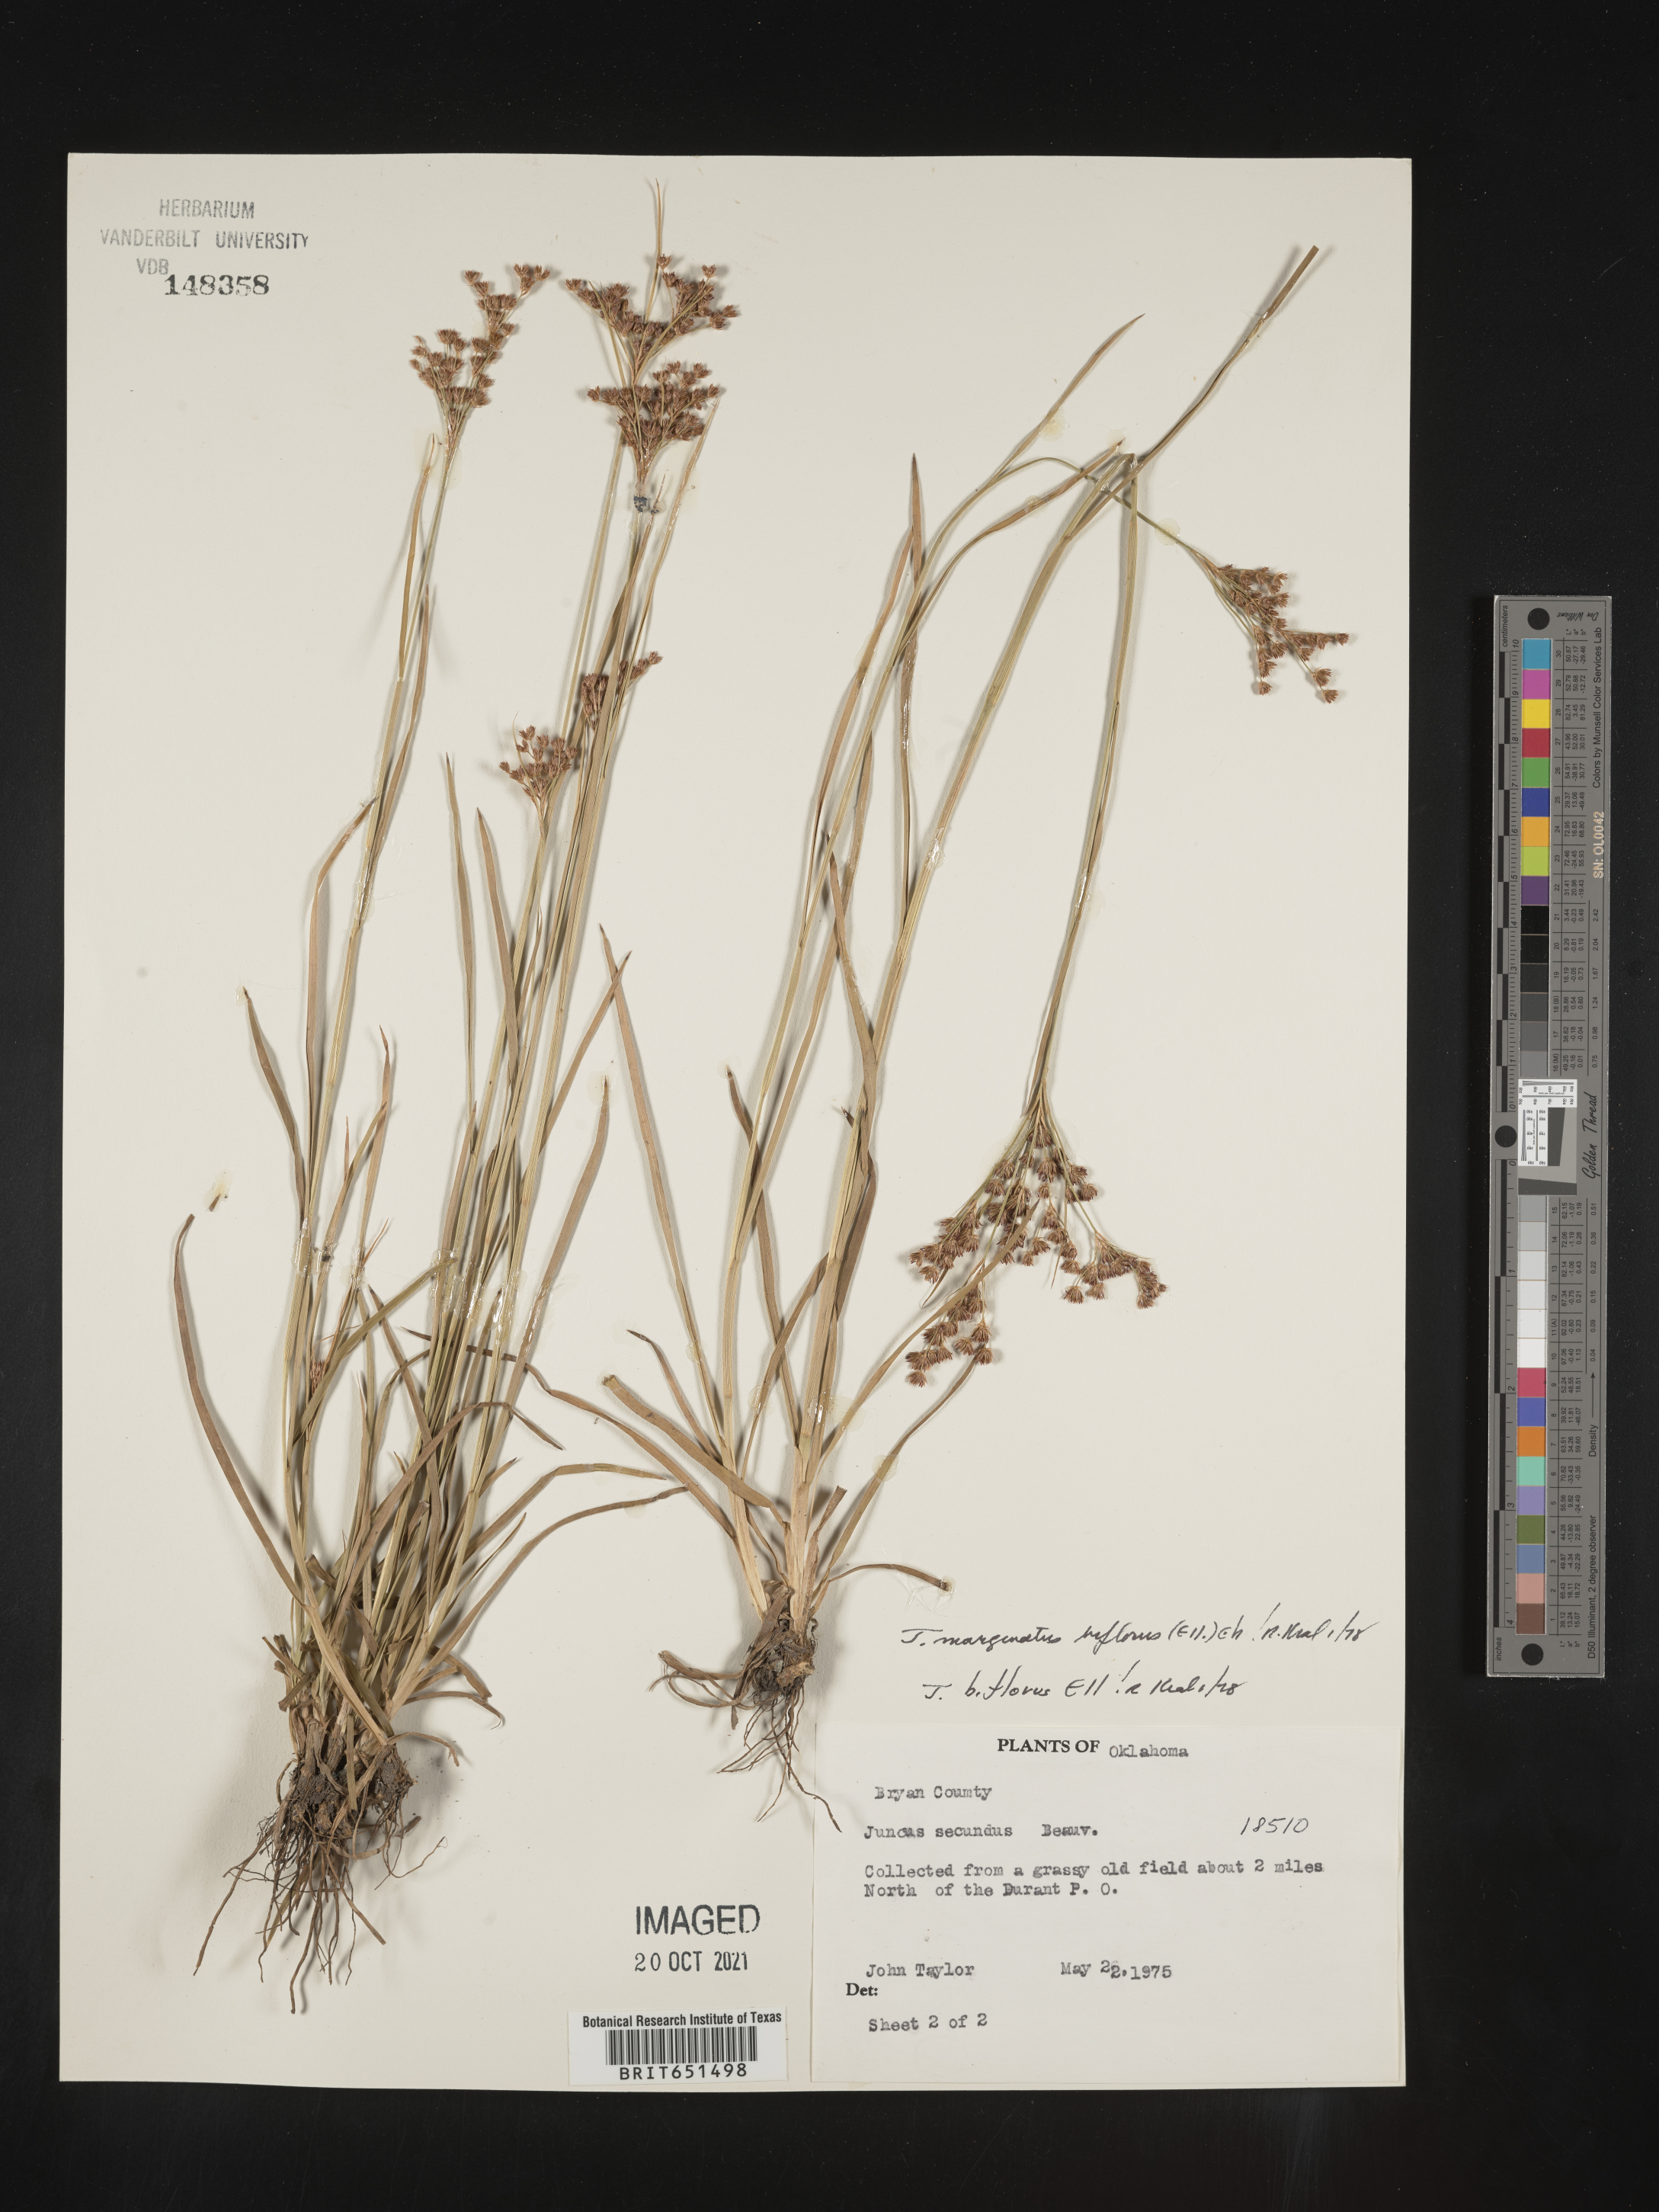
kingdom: Plantae
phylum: Tracheophyta
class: Liliopsida
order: Poales
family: Juncaceae
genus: Juncus
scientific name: Juncus biflorus
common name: Two-flowered rush
